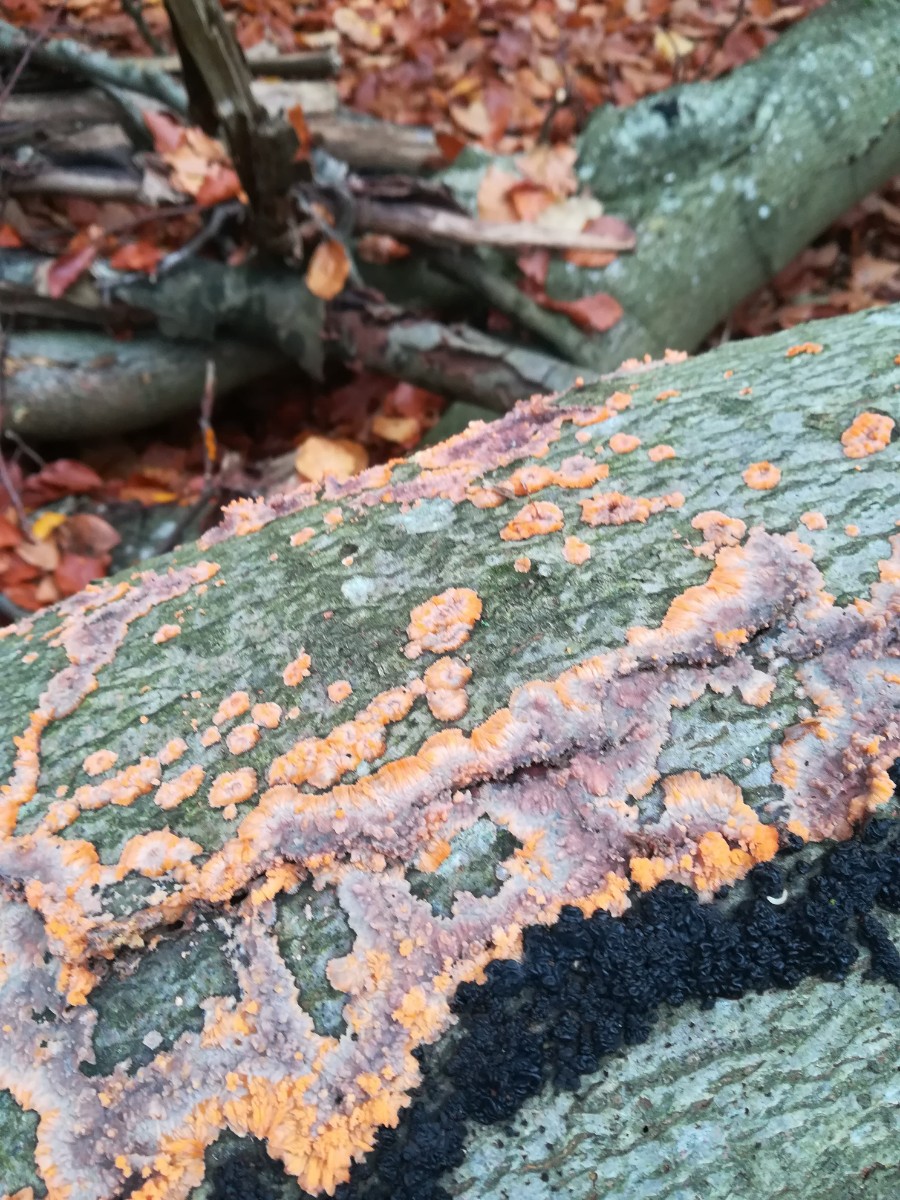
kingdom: Fungi
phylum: Basidiomycota
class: Agaricomycetes
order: Polyporales
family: Meruliaceae
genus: Phlebia
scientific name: Phlebia radiata
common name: stråle-åresvamp
